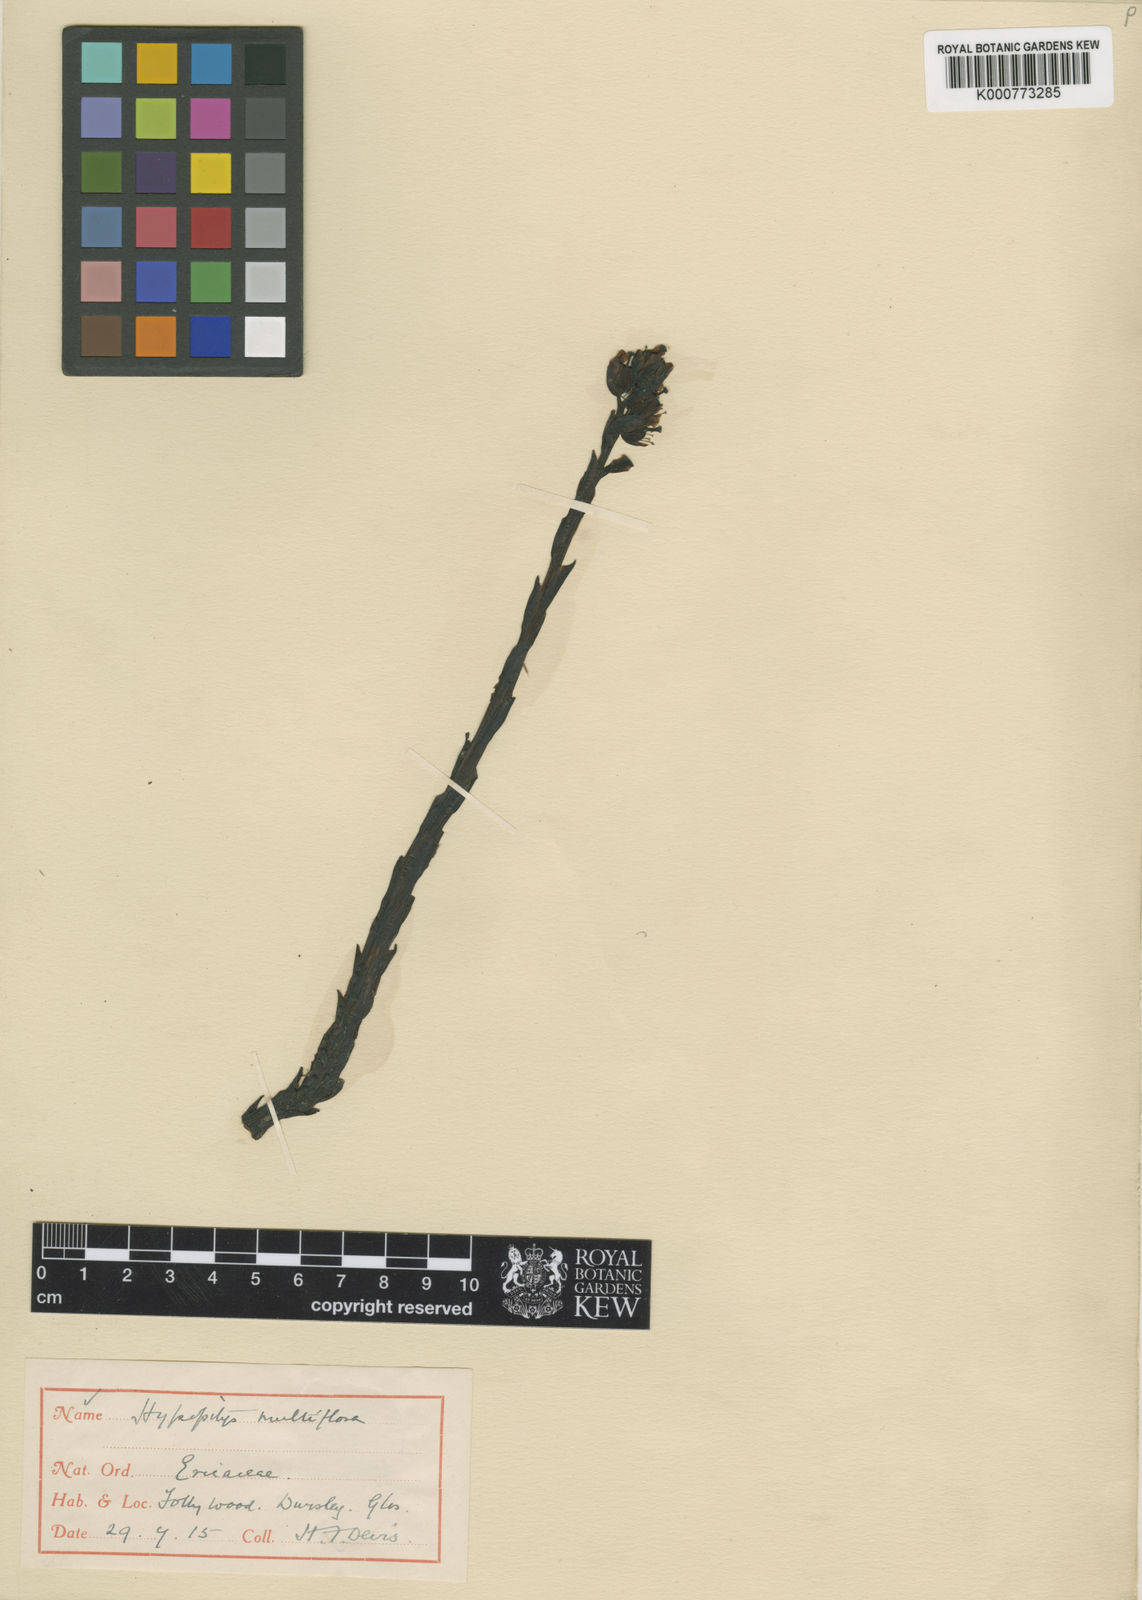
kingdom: Plantae
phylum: Tracheophyta
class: Magnoliopsida
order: Ericales
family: Ericaceae
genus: Monotropa
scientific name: Monotropa
